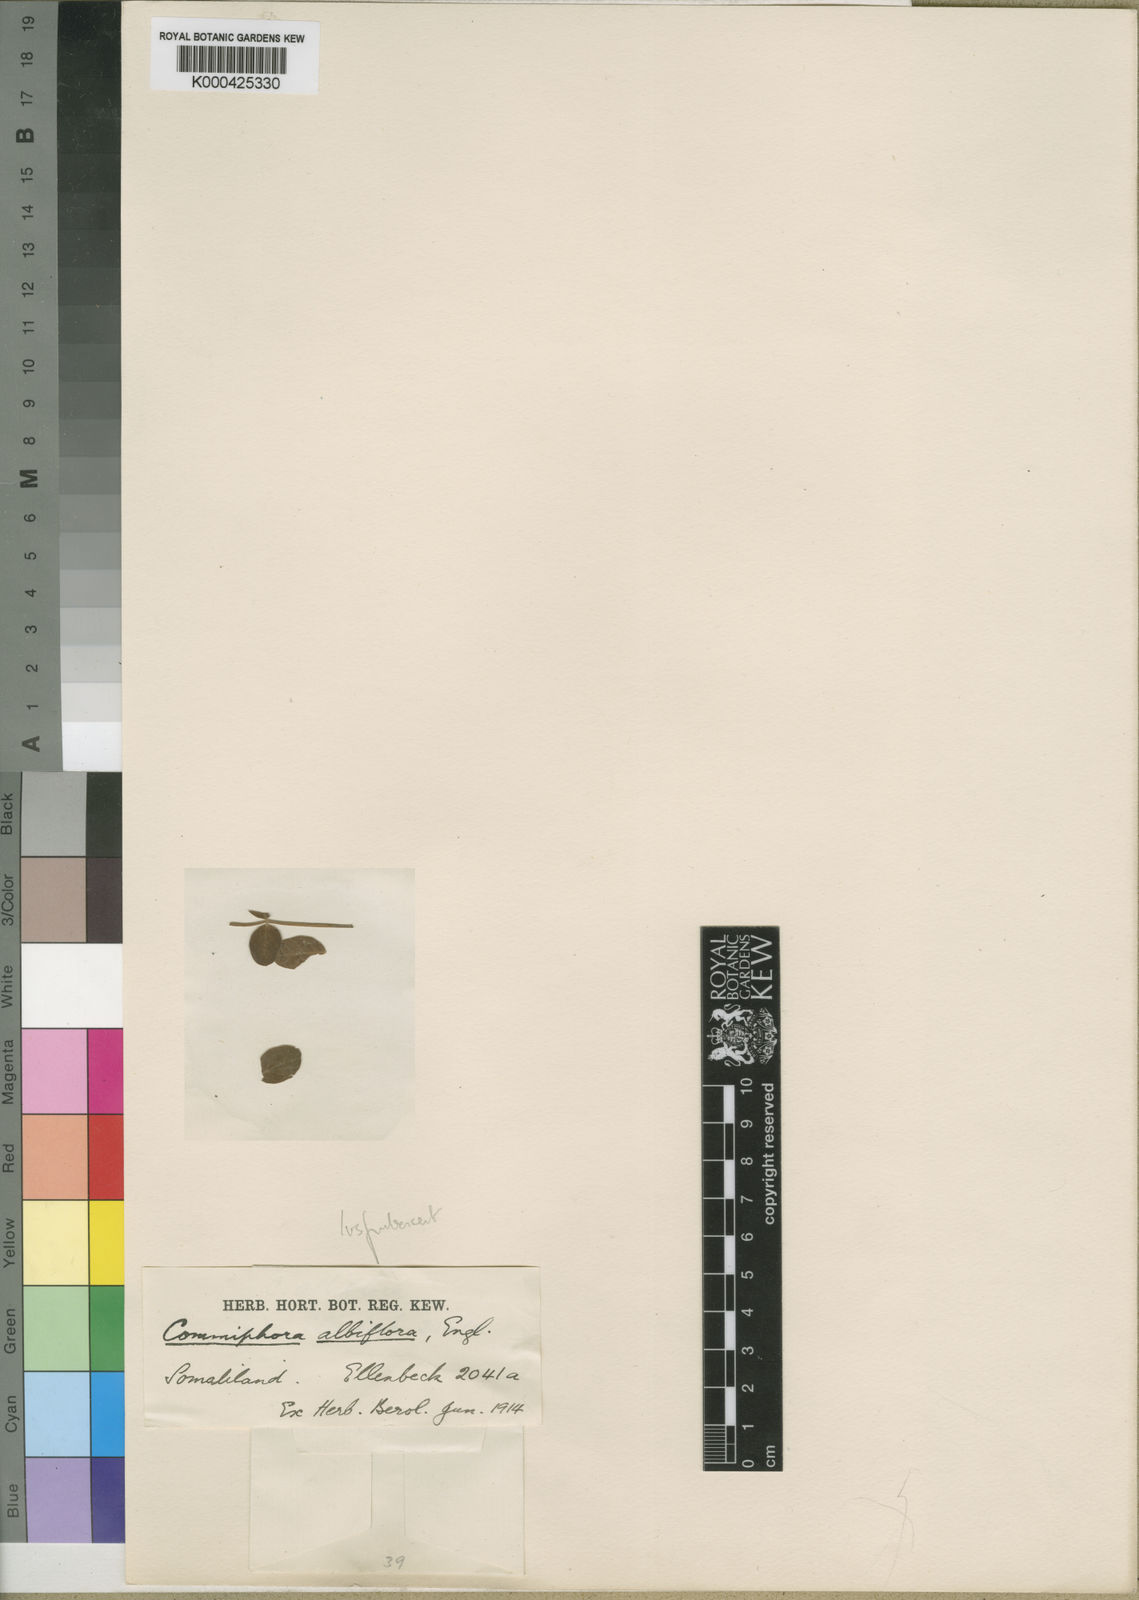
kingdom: Plantae
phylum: Tracheophyta
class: Magnoliopsida
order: Sapindales
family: Burseraceae
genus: Commiphora
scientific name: Commiphora gileadensis
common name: Balm-of-gilead
